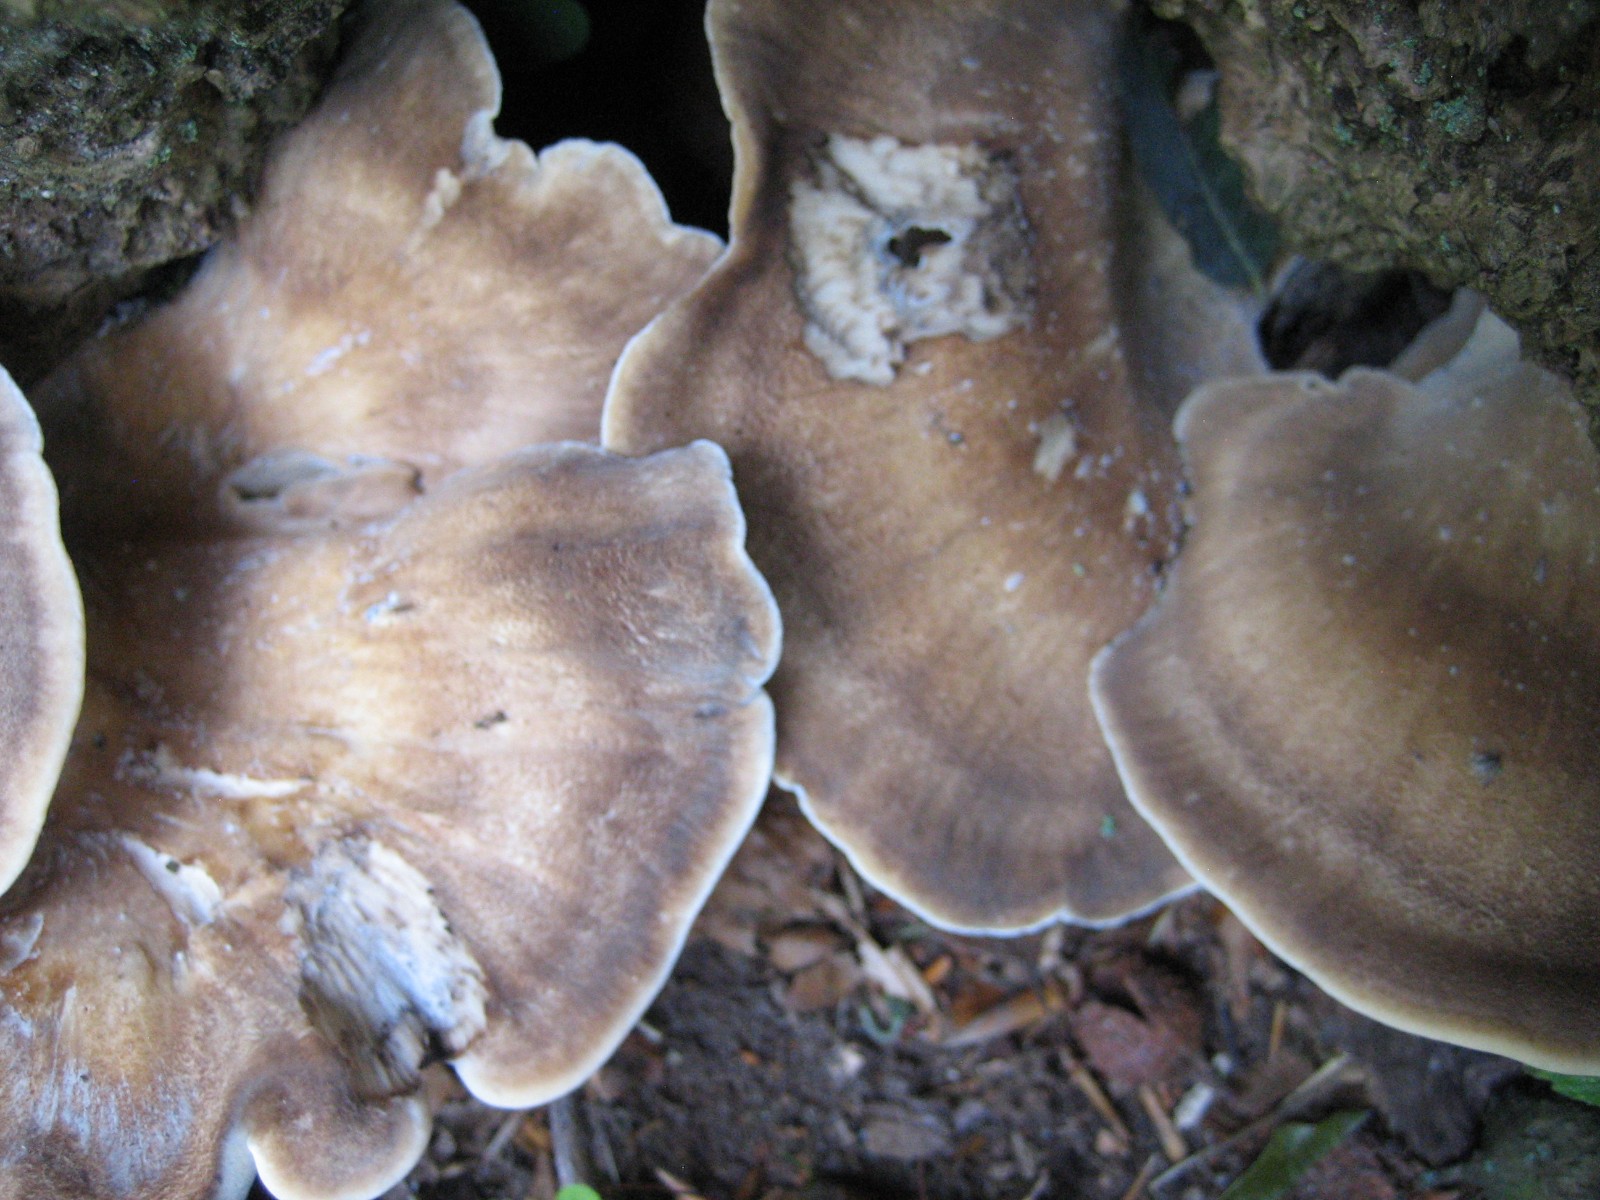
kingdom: Fungi
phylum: Basidiomycota
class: Agaricomycetes
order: Polyporales
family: Meripilaceae
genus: Meripilus
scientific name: Meripilus giganteus
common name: kæmpeporesvamp
